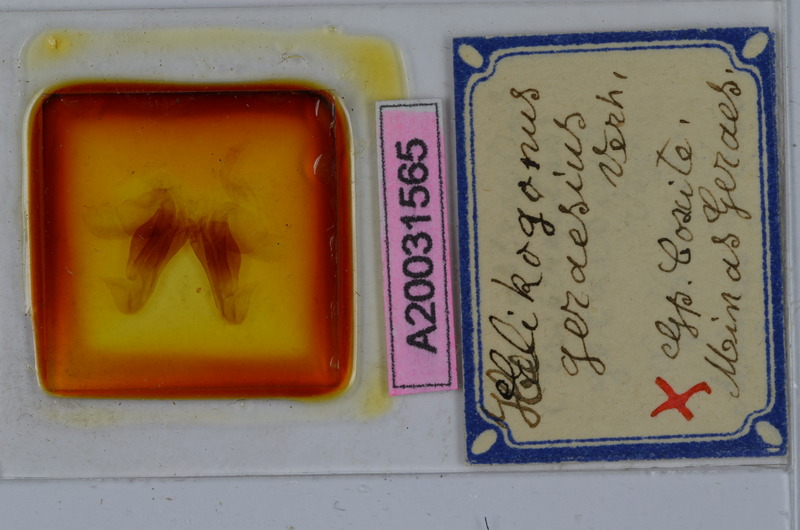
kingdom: Animalia
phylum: Arthropoda
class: Diplopoda
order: Spirostreptida
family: Spirostreptidae
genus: Helicogonus
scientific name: Helicogonus geraesius
